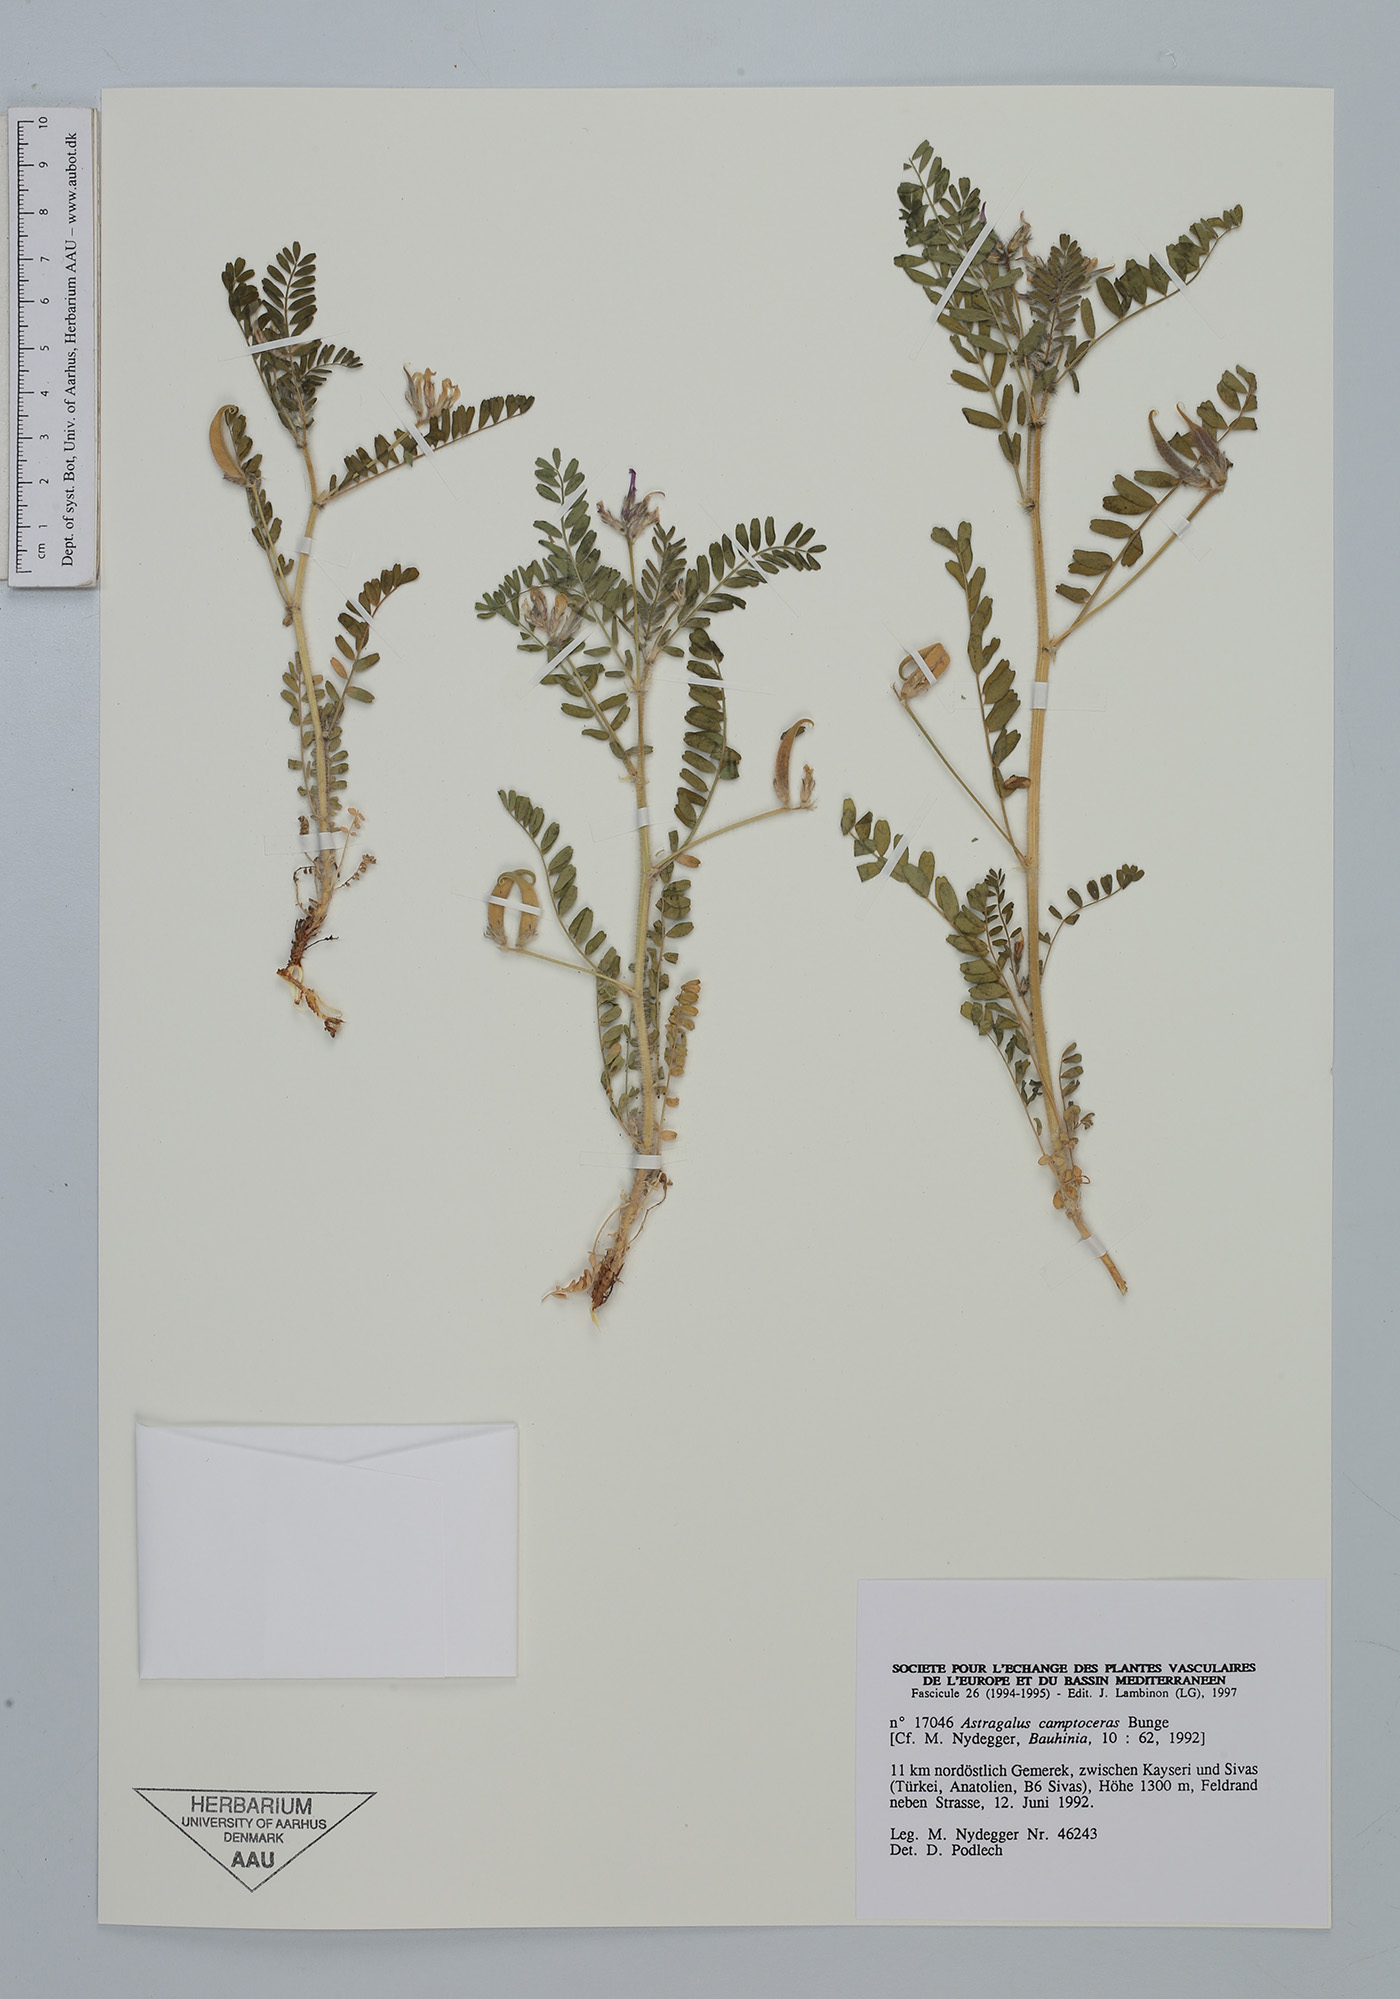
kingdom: Plantae
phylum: Tracheophyta
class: Magnoliopsida
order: Fabales
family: Fabaceae
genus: Astragalus
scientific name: Astragalus camptoceras
